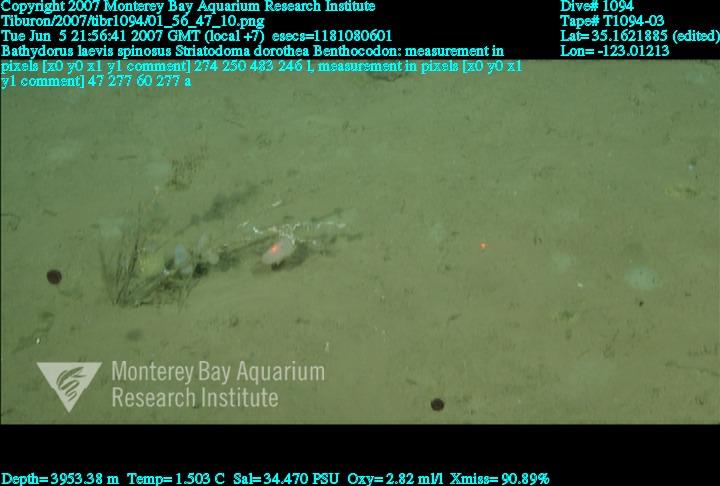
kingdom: Animalia
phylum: Porifera
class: Hexactinellida
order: Lyssacinosida
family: Rossellidae
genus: Bathydorus
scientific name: Bathydorus spinosus
